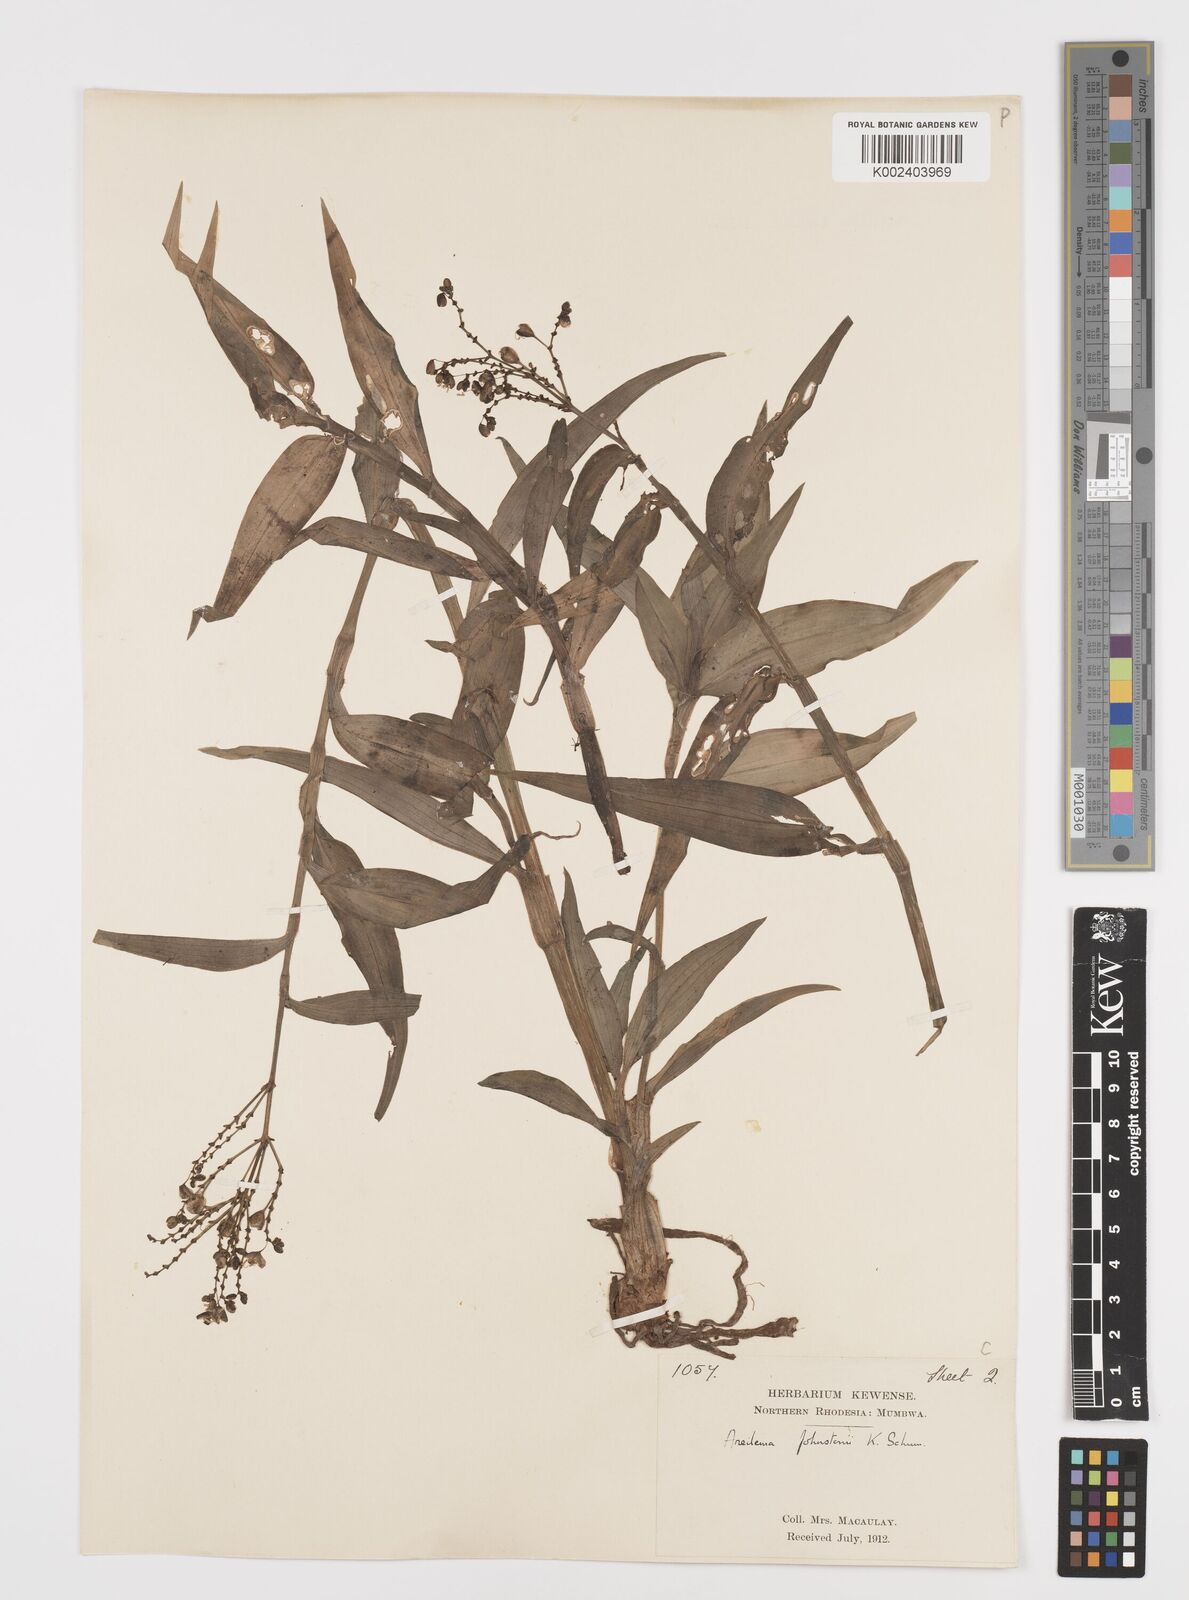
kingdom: Plantae
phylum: Tracheophyta
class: Liliopsida
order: Commelinales
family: Commelinaceae
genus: Aneilema
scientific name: Aneilema johnstonii
